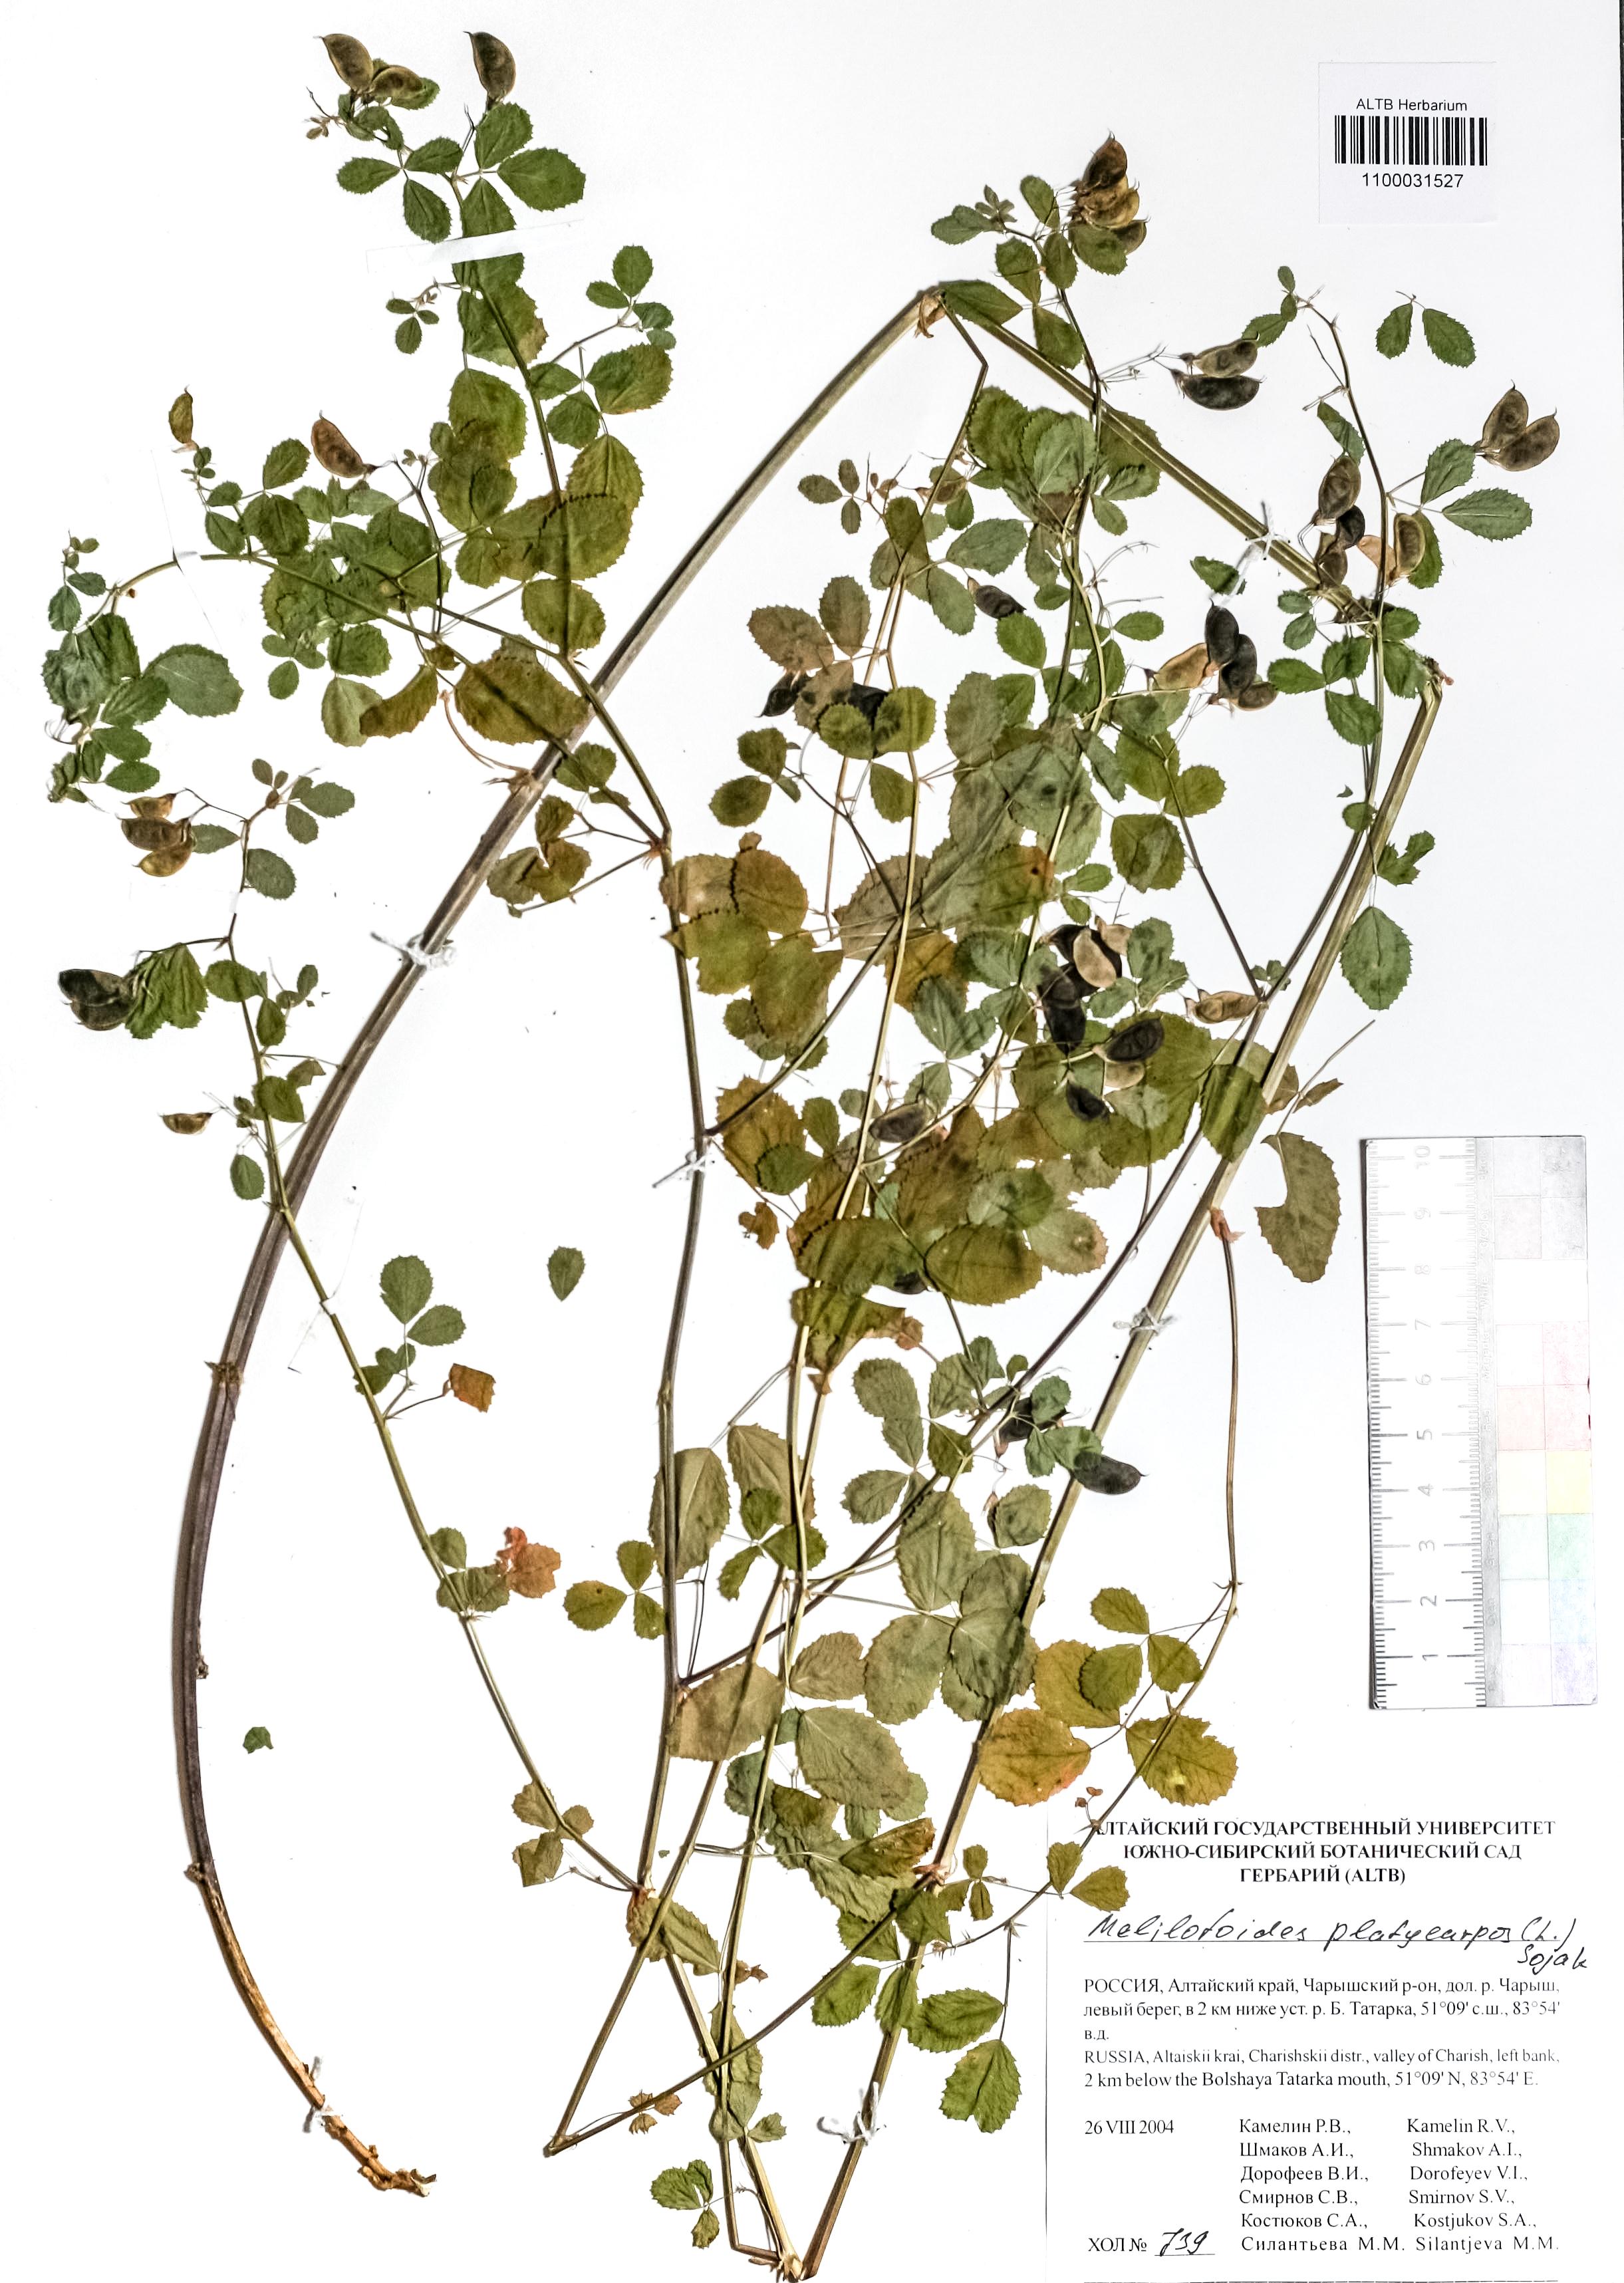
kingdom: Plantae
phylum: Tracheophyta
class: Magnoliopsida
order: Fabales
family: Fabaceae
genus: Medicago
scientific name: Medicago platycarpos
